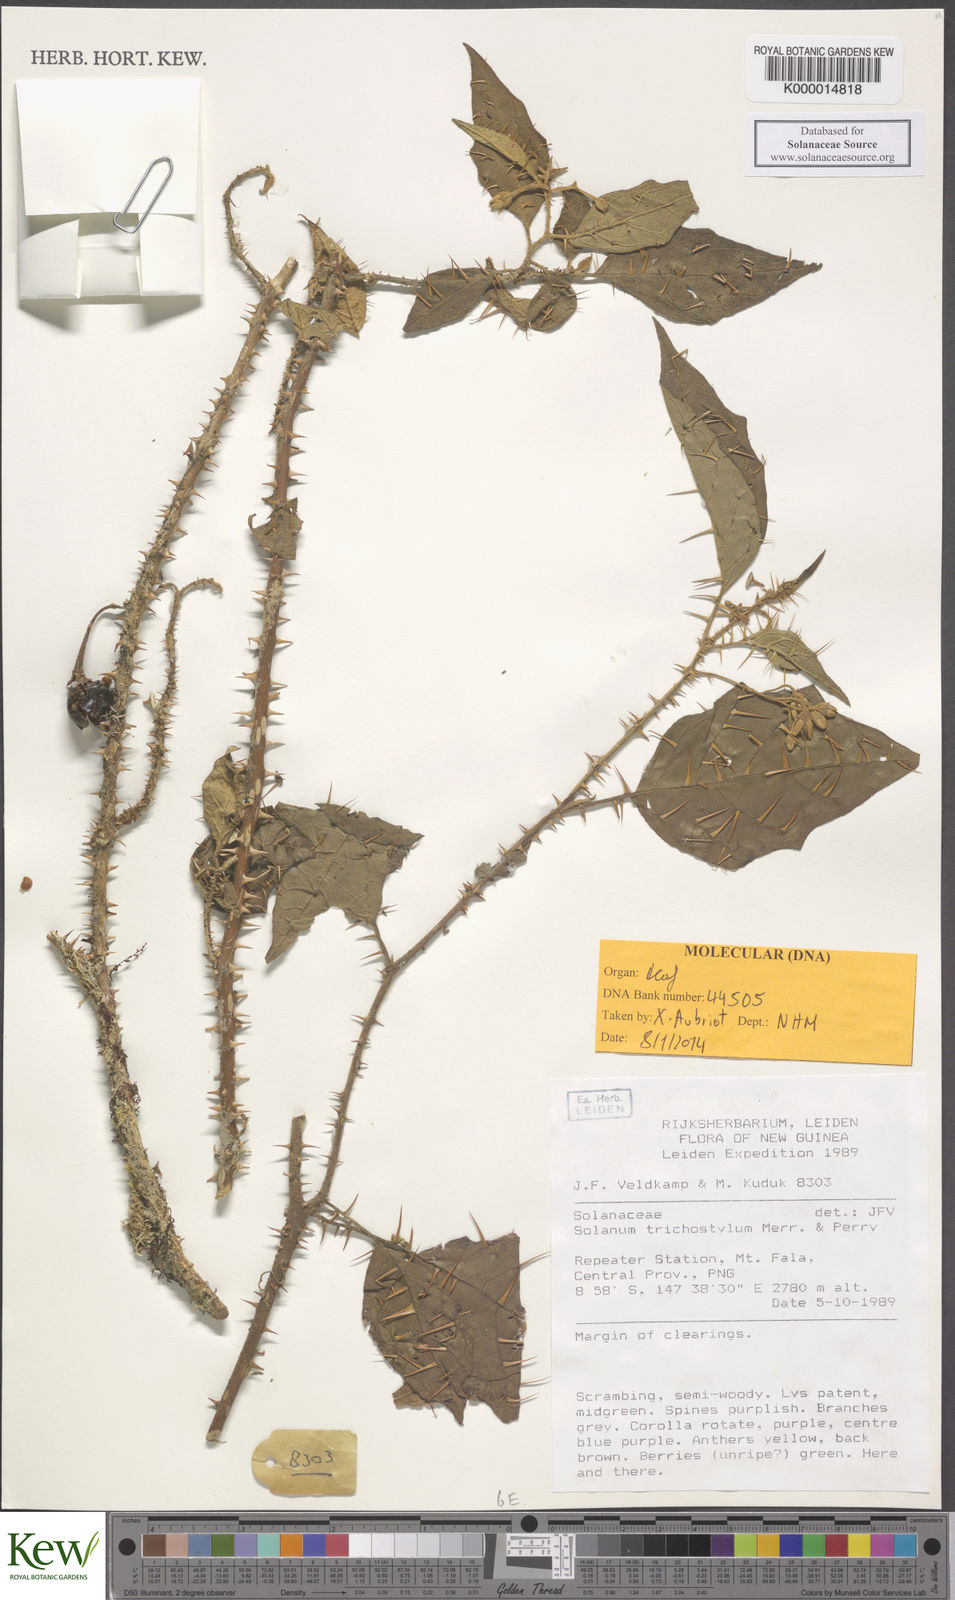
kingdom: Plantae
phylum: Tracheophyta
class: Magnoliopsida
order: Solanales
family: Solanaceae
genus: Solanum
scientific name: Solanum trichostylum
